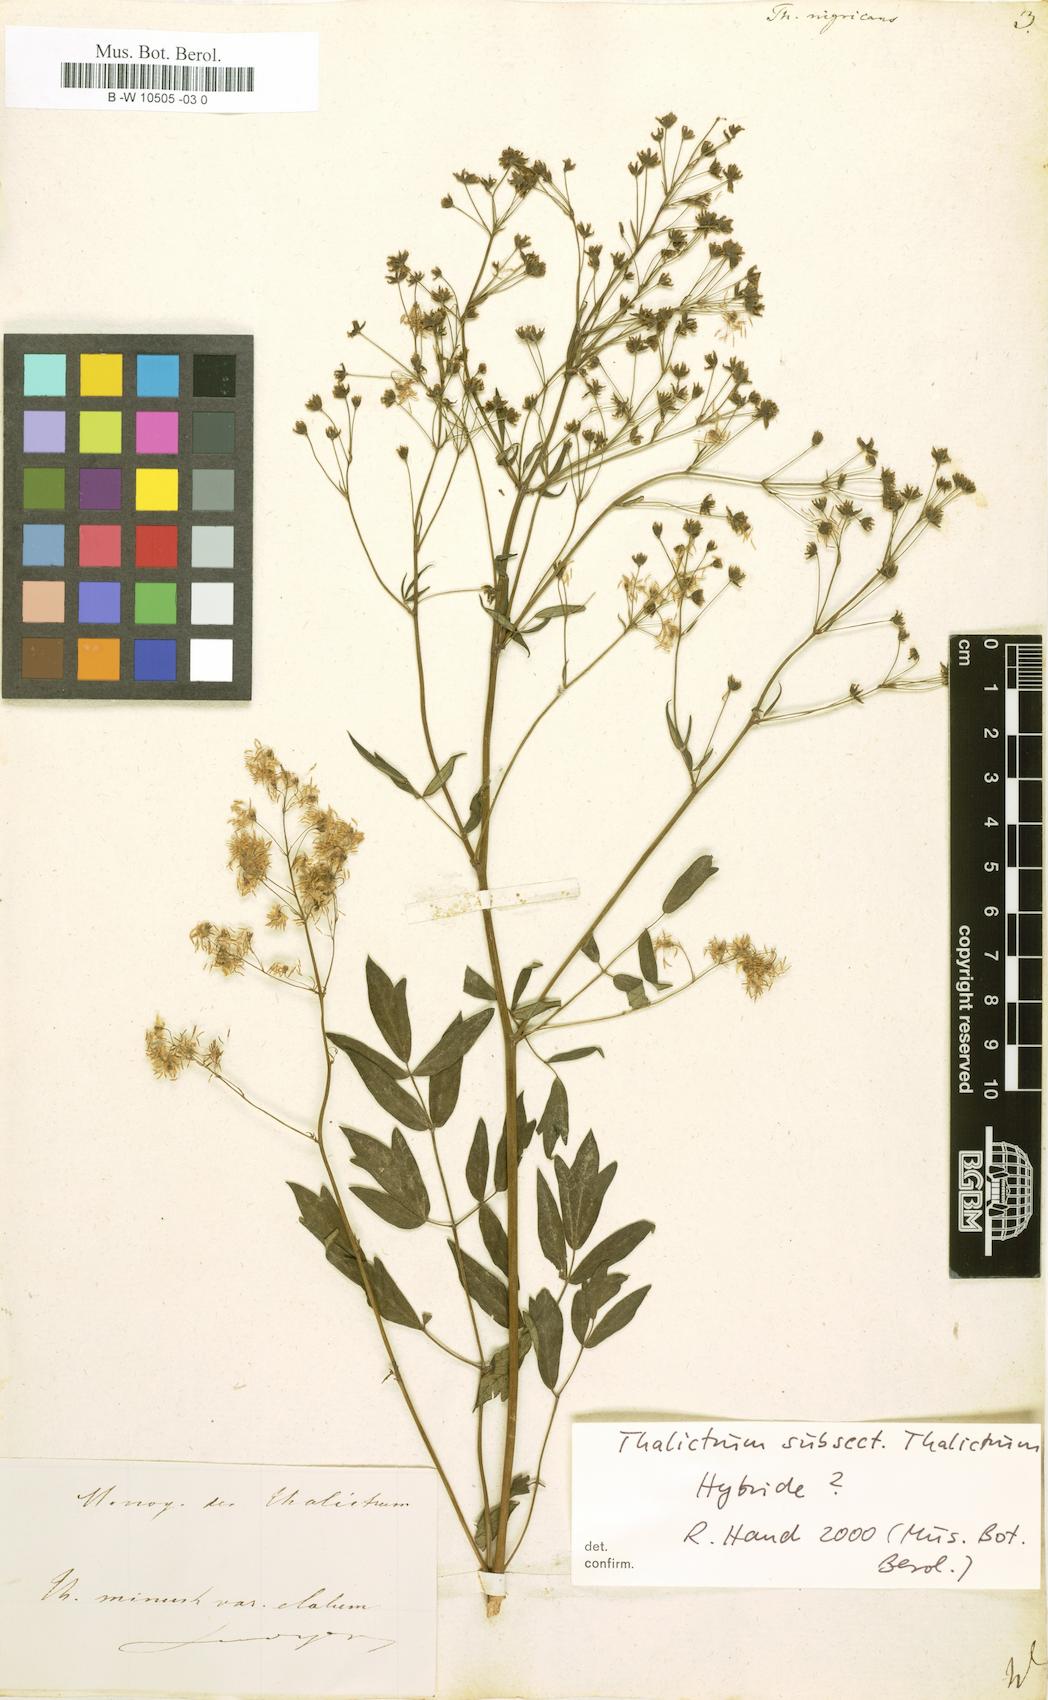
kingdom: Plantae
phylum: Tracheophyta
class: Magnoliopsida
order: Ranunculales
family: Ranunculaceae
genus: Thalictrum
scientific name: Thalictrum
